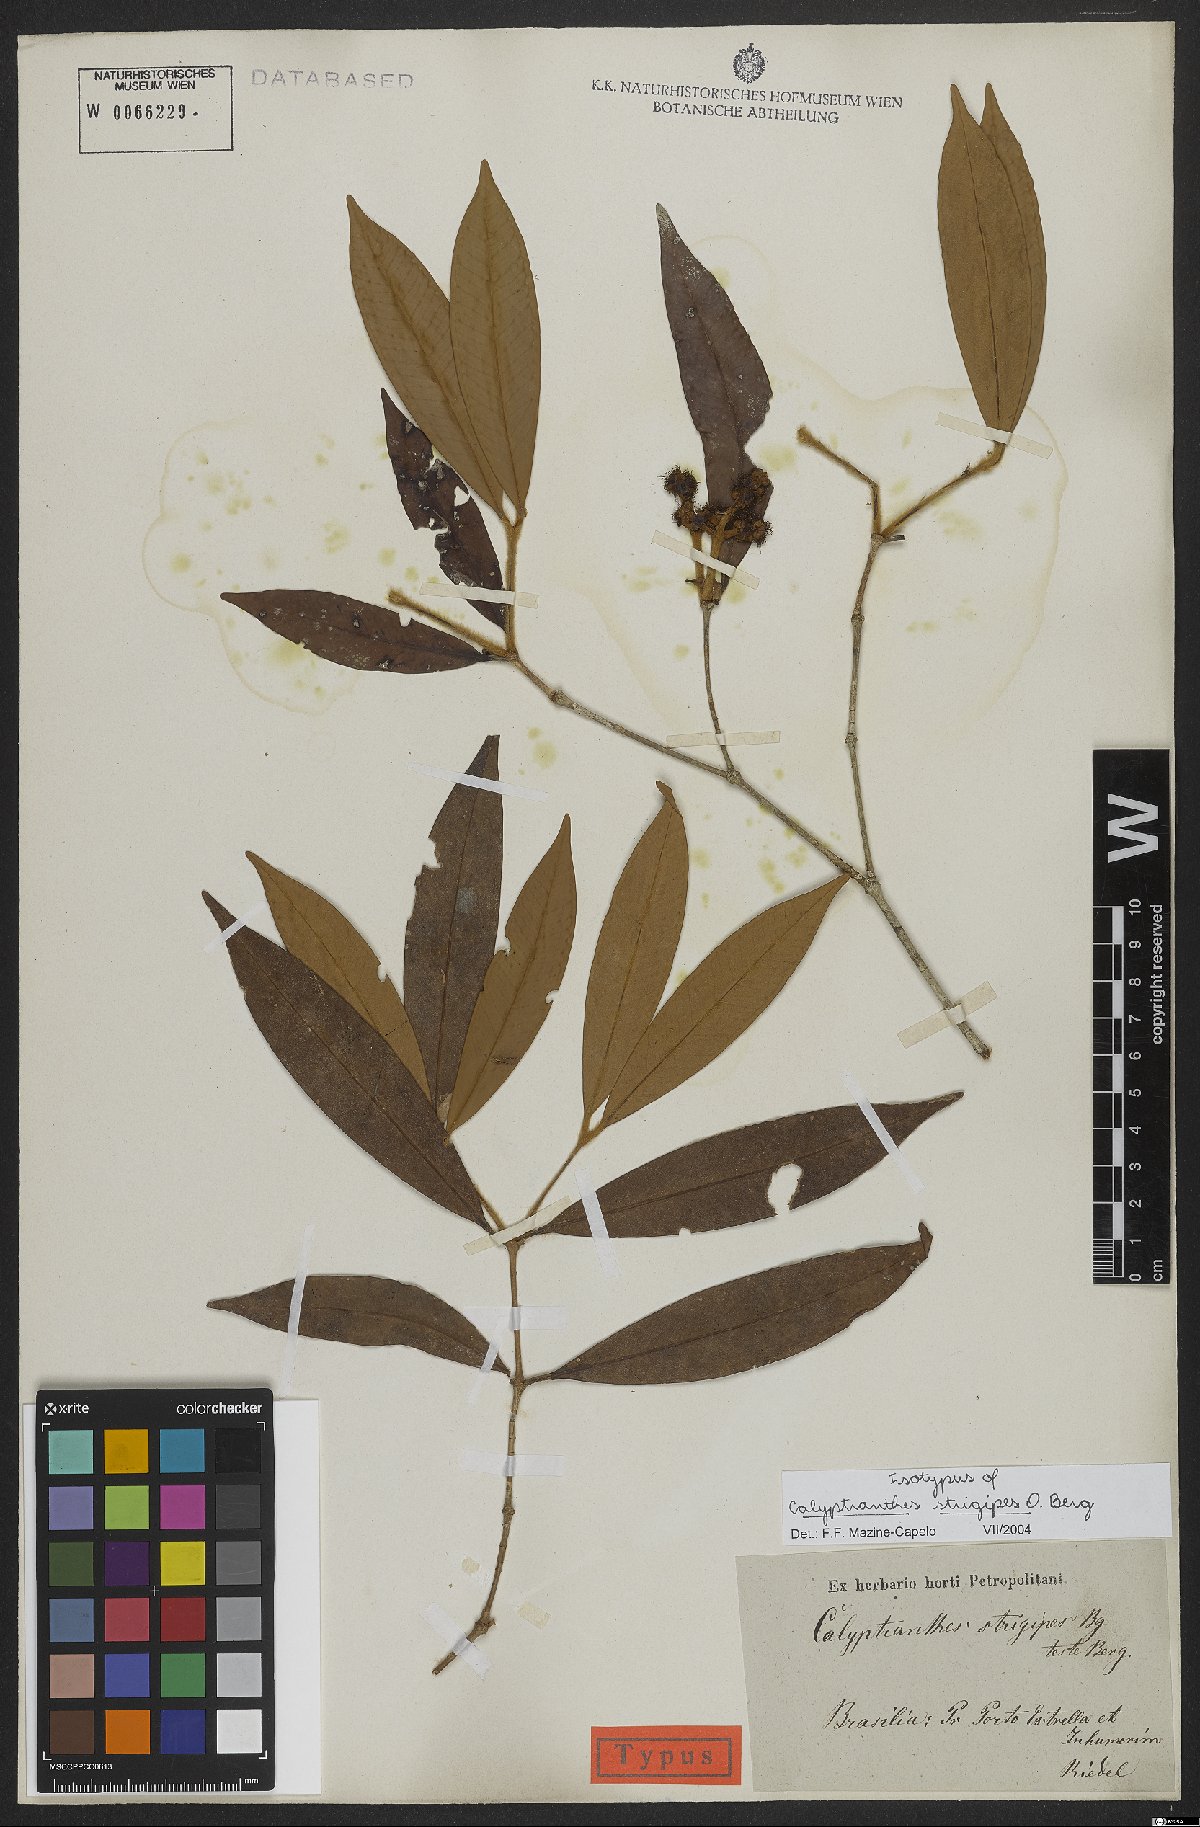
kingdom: Plantae
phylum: Tracheophyta
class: Magnoliopsida
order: Myrtales
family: Myrtaceae
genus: Myrcia
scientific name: Myrcia strigosa
